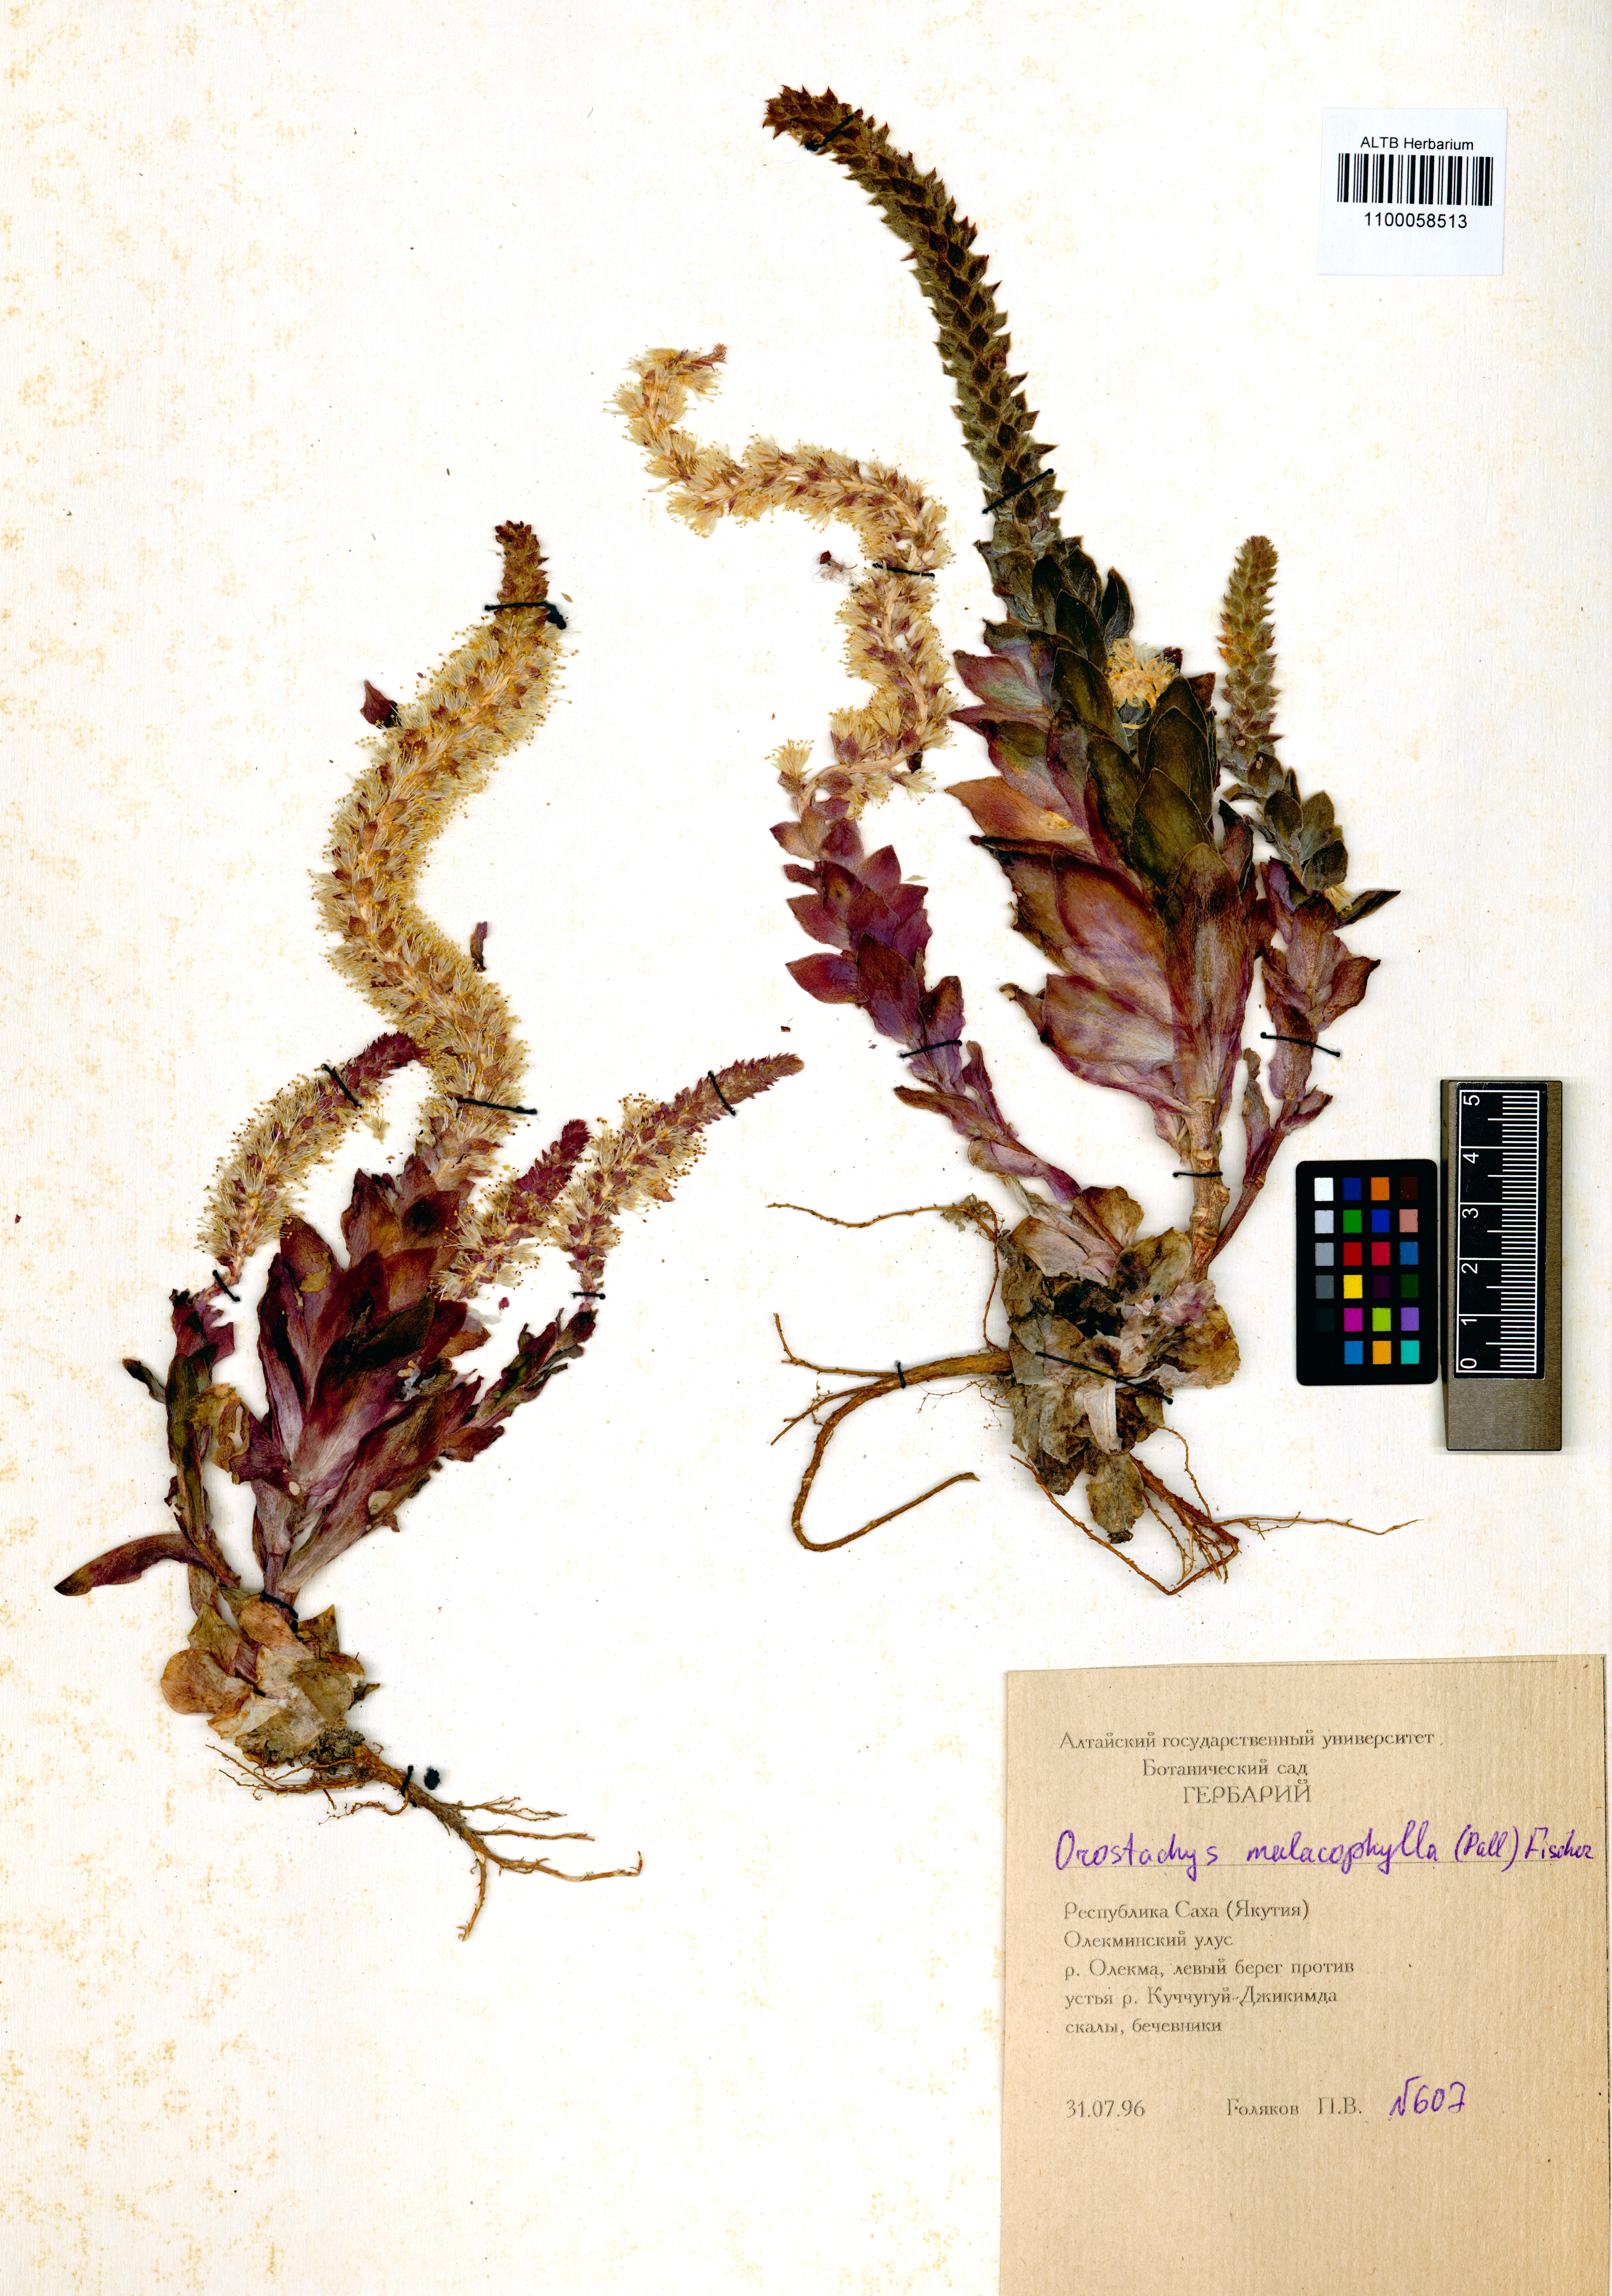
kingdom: Plantae
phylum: Tracheophyta
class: Magnoliopsida
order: Saxifragales
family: Crassulaceae
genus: Orostachys
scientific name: Orostachys malacophylla
